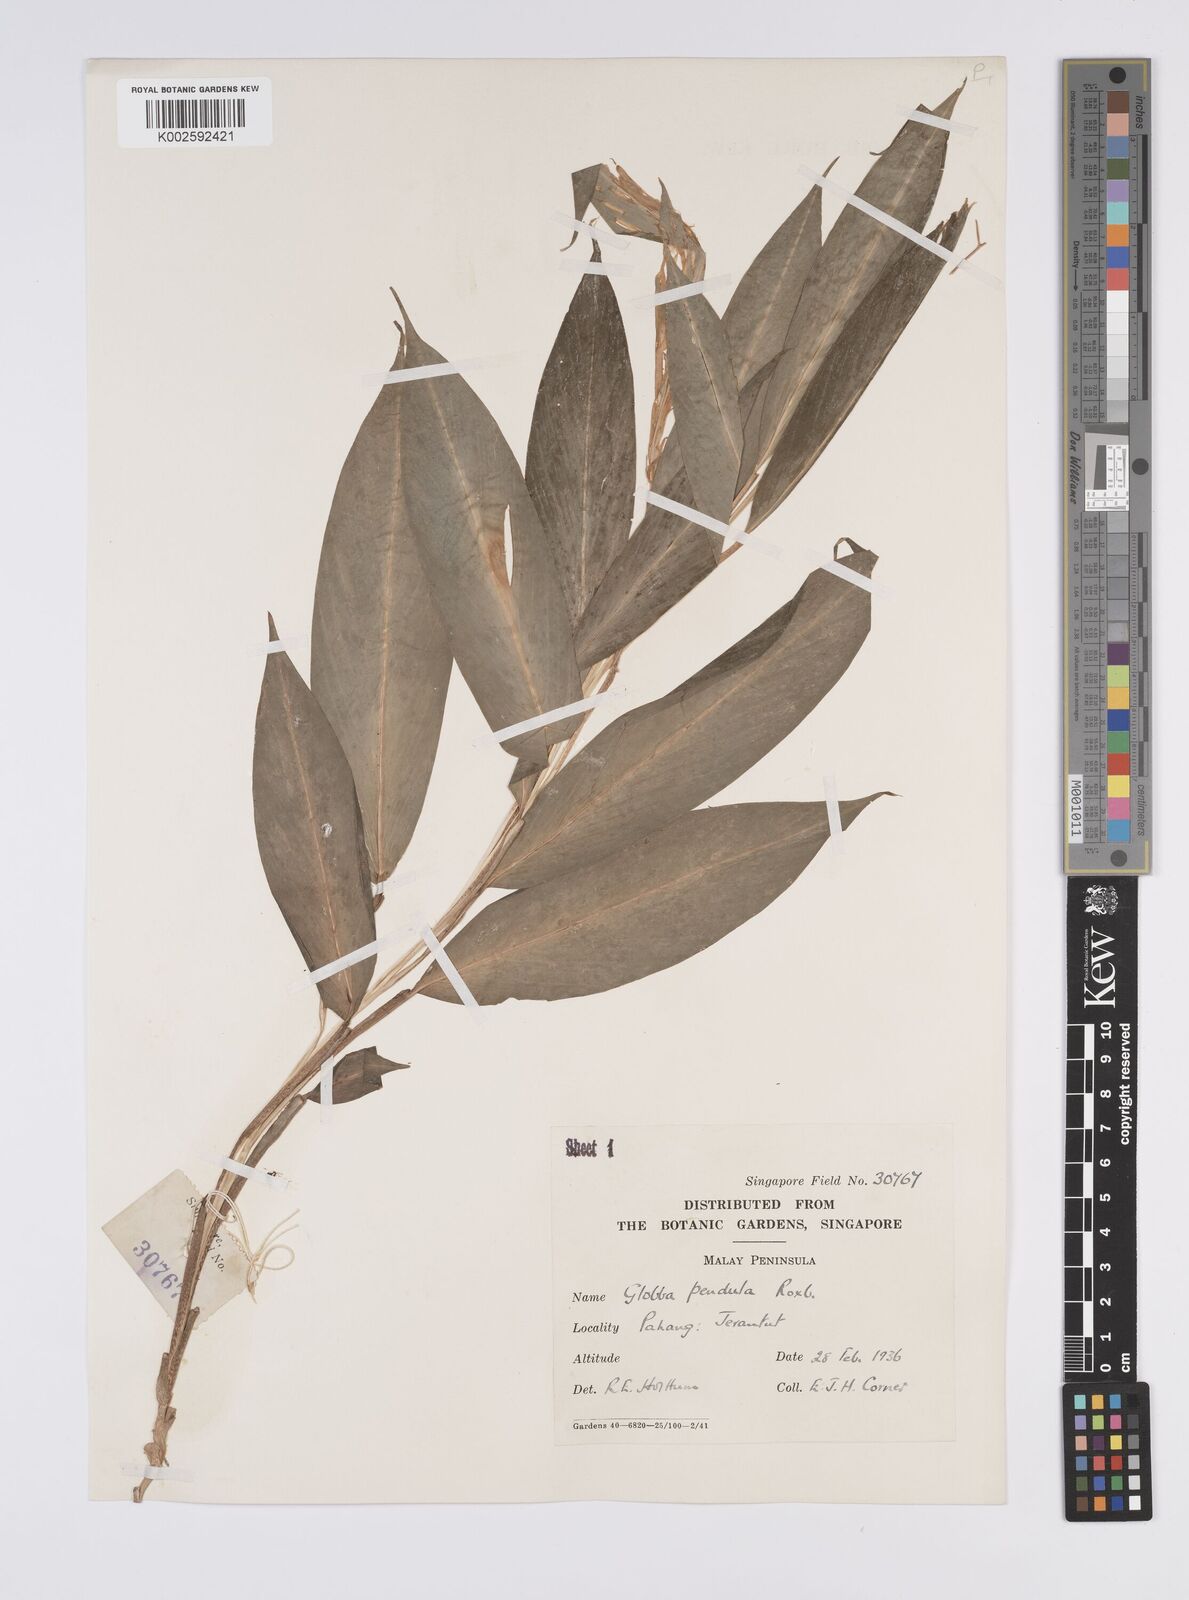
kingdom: Plantae
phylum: Tracheophyta
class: Liliopsida
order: Zingiberales
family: Zingiberaceae
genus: Globba
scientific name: Globba pendula
